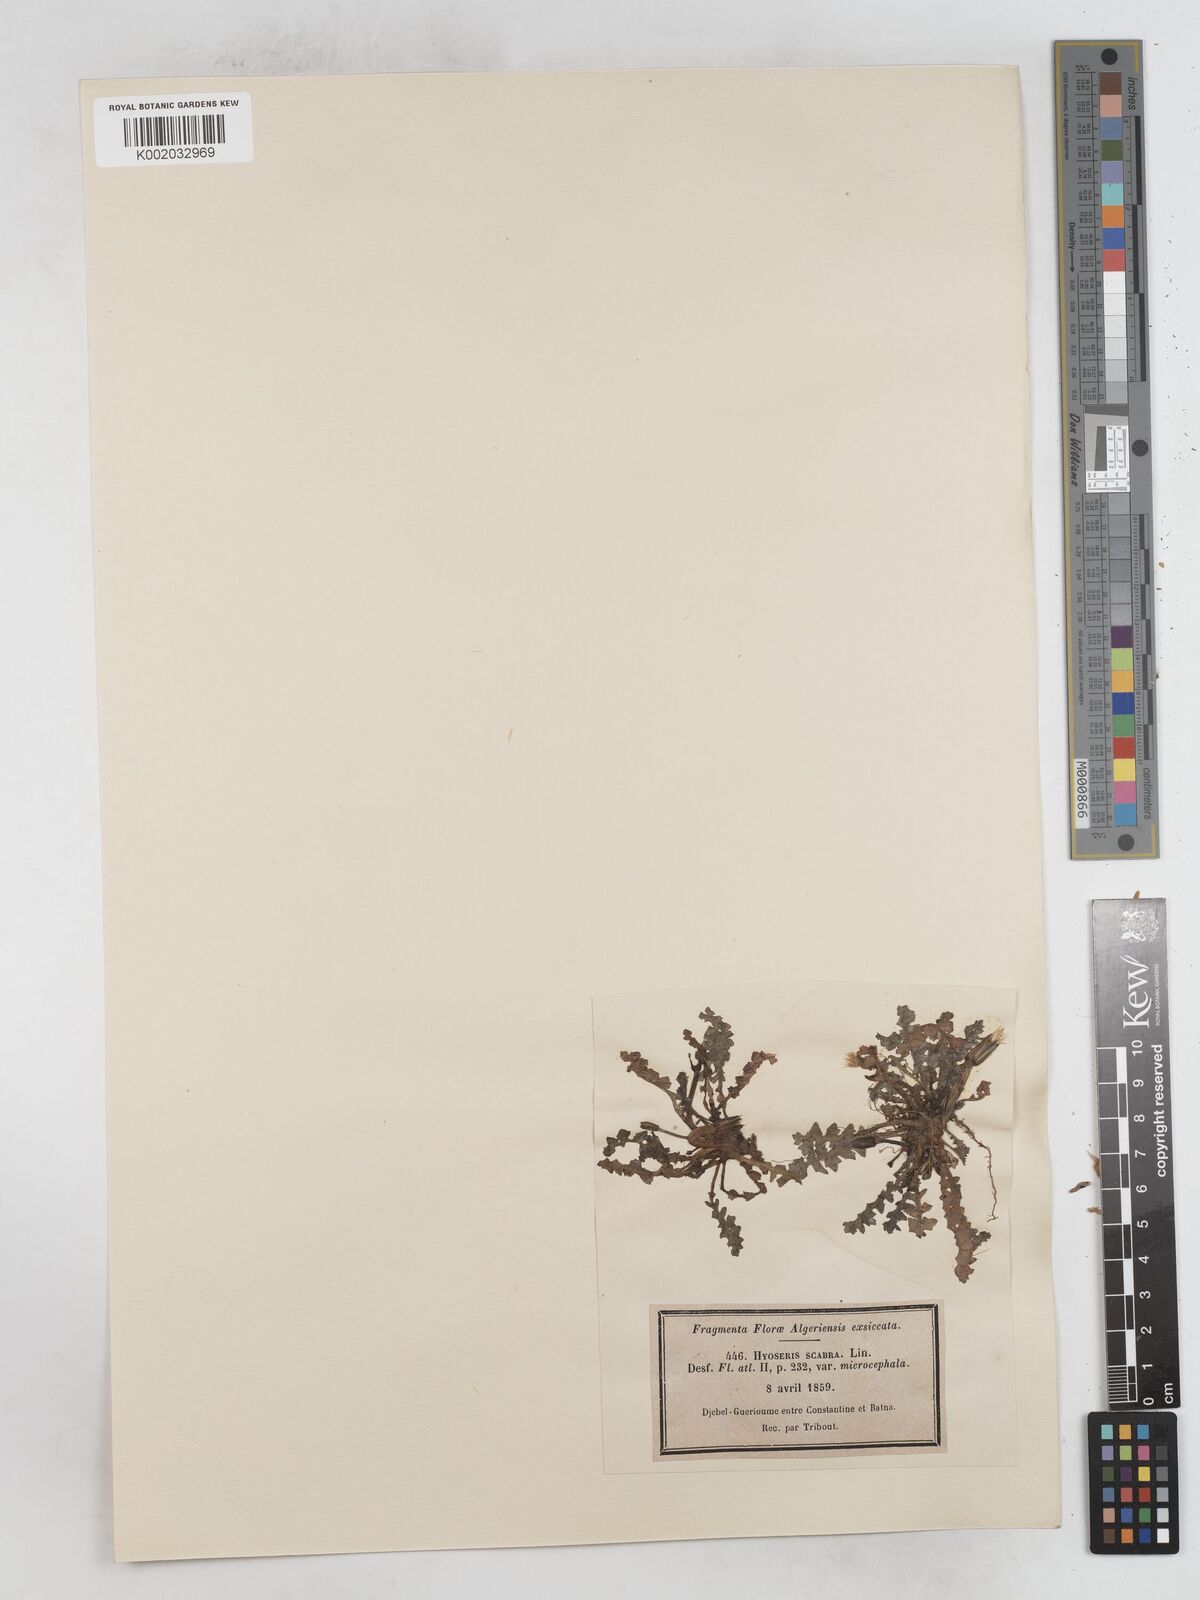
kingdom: Plantae
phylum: Tracheophyta
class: Magnoliopsida
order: Asterales
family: Asteraceae
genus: Hyoseris
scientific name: Hyoseris scabra
